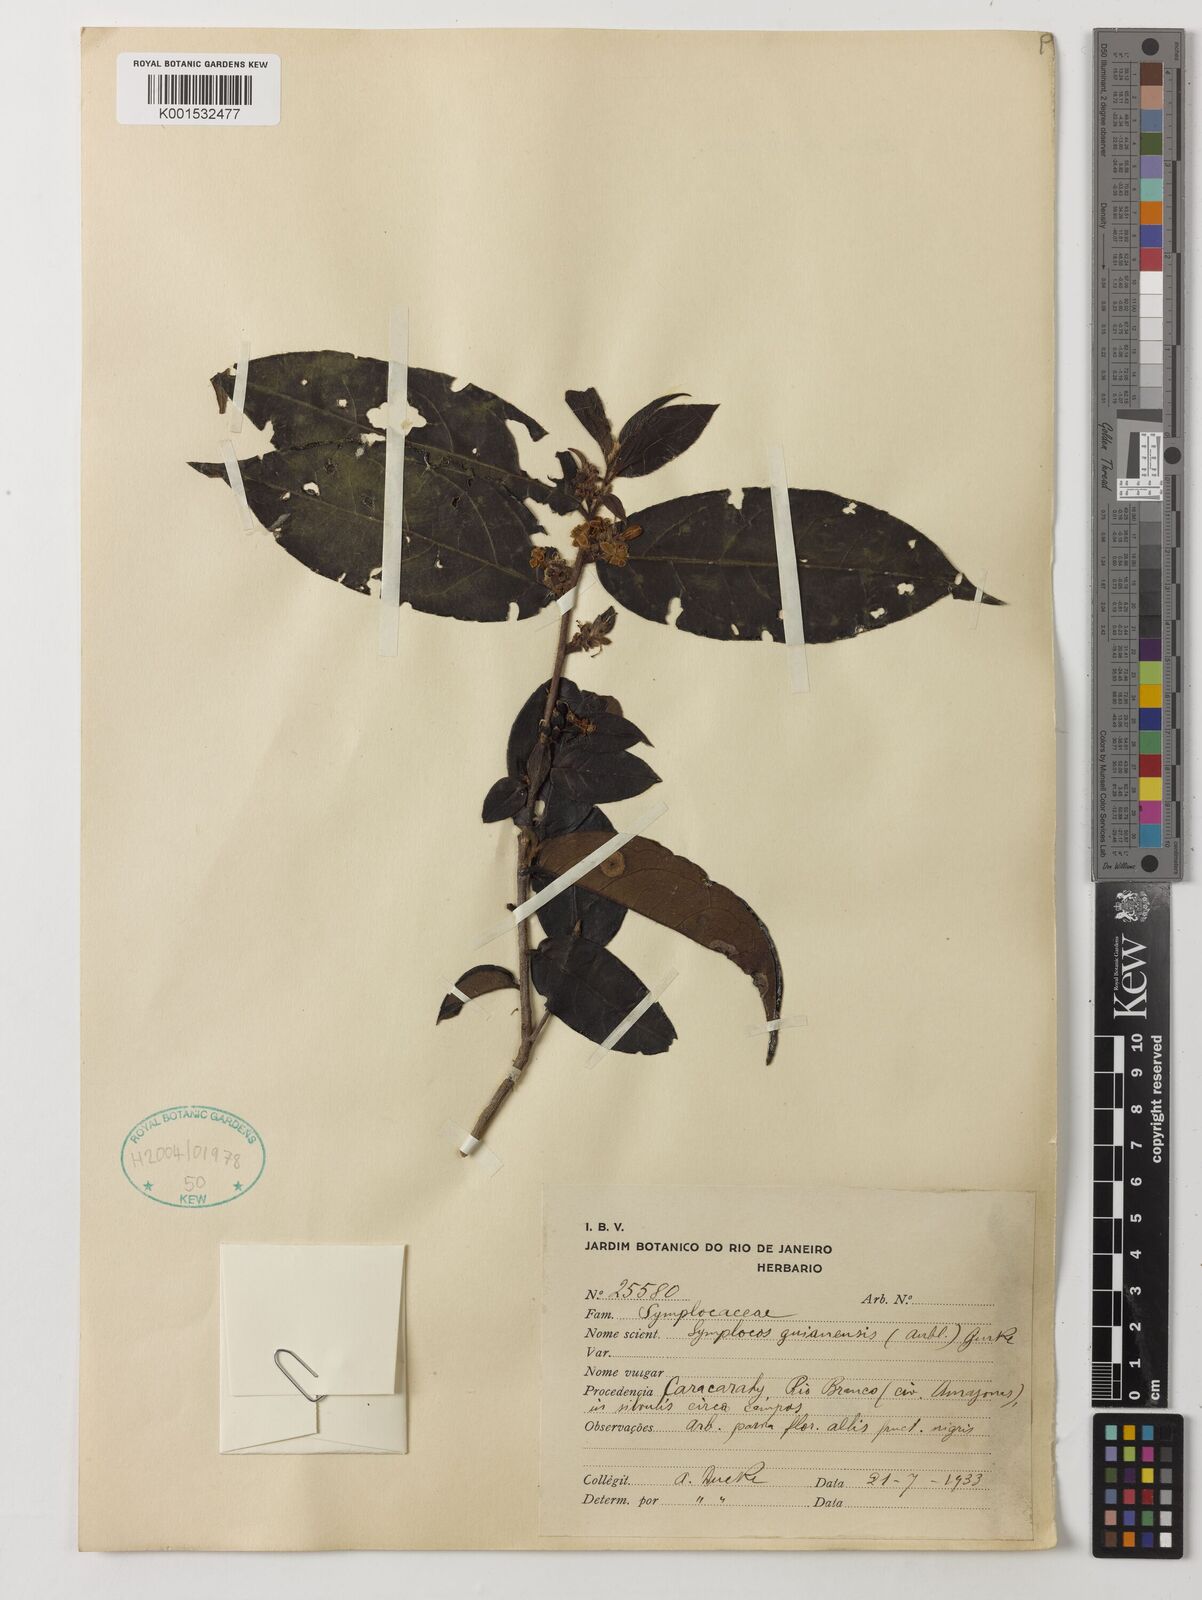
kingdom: Plantae
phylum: Tracheophyta
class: Magnoliopsida
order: Ericales
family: Symplocaceae
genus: Symplocos
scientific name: Symplocos guianensis
